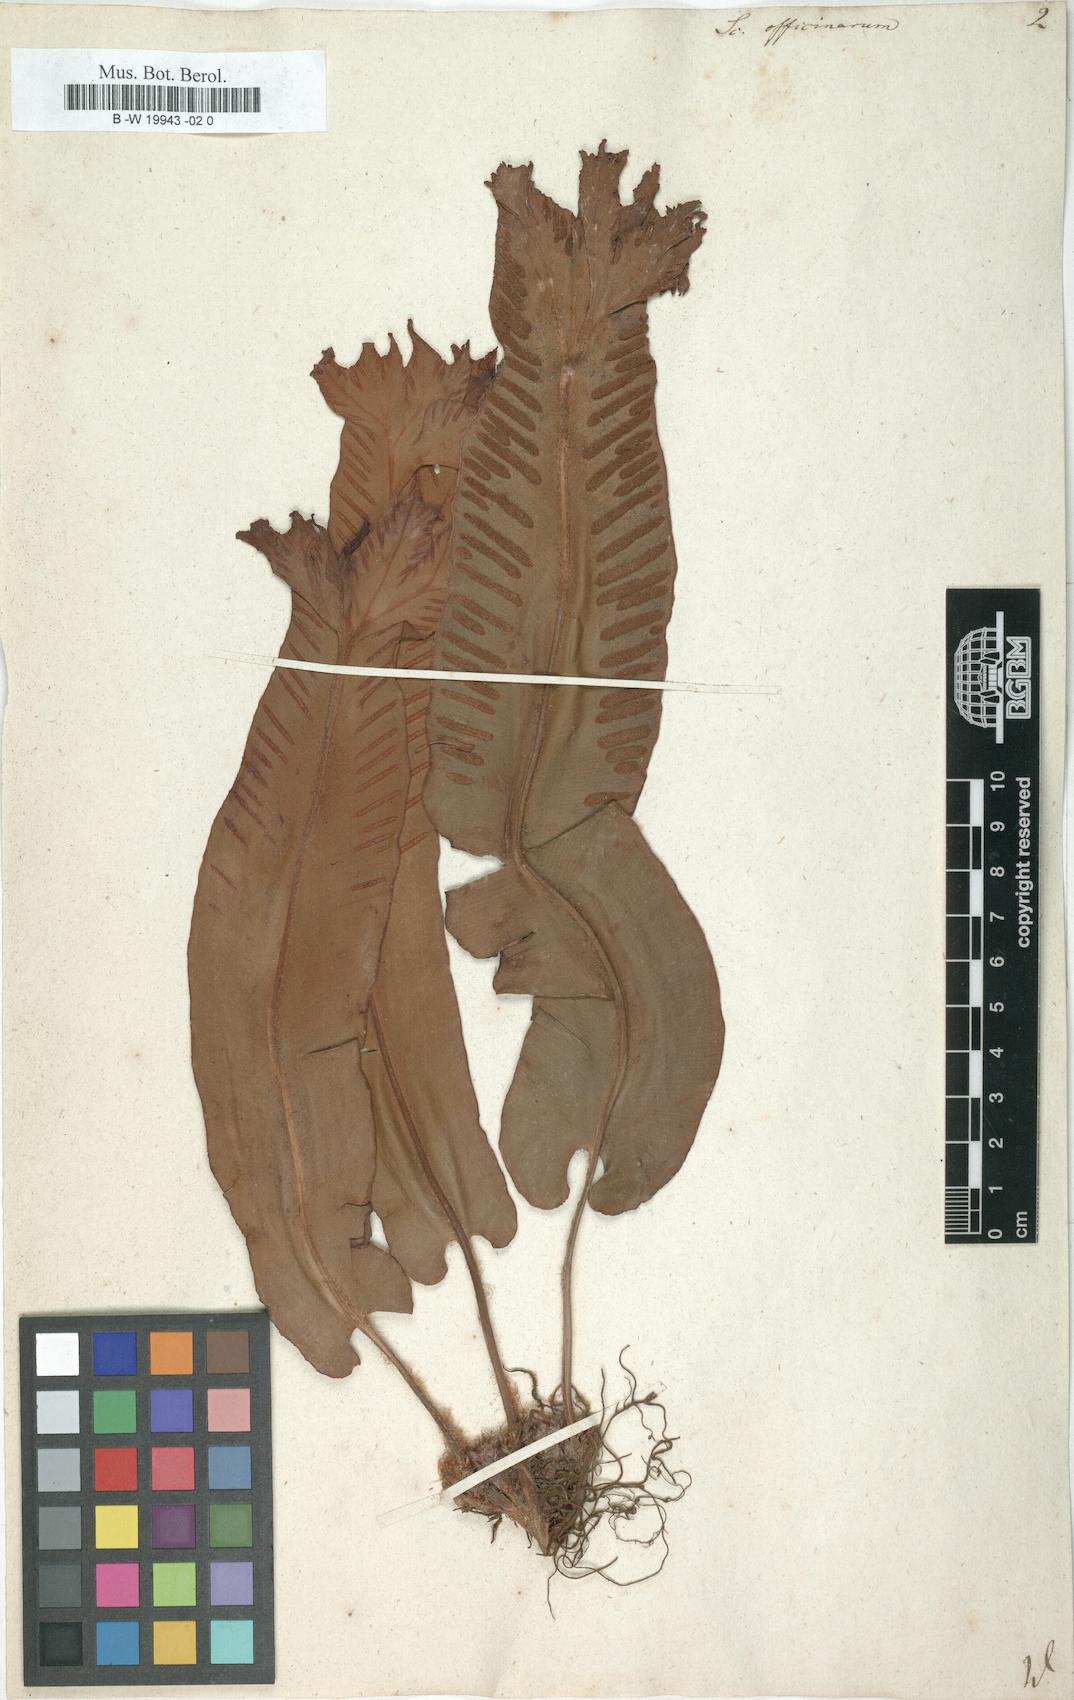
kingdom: Plantae
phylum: Tracheophyta
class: Polypodiopsida
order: Polypodiales
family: Aspleniaceae
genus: Asplenium
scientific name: Asplenium scolopendrium
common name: Hart's-tongue fern
